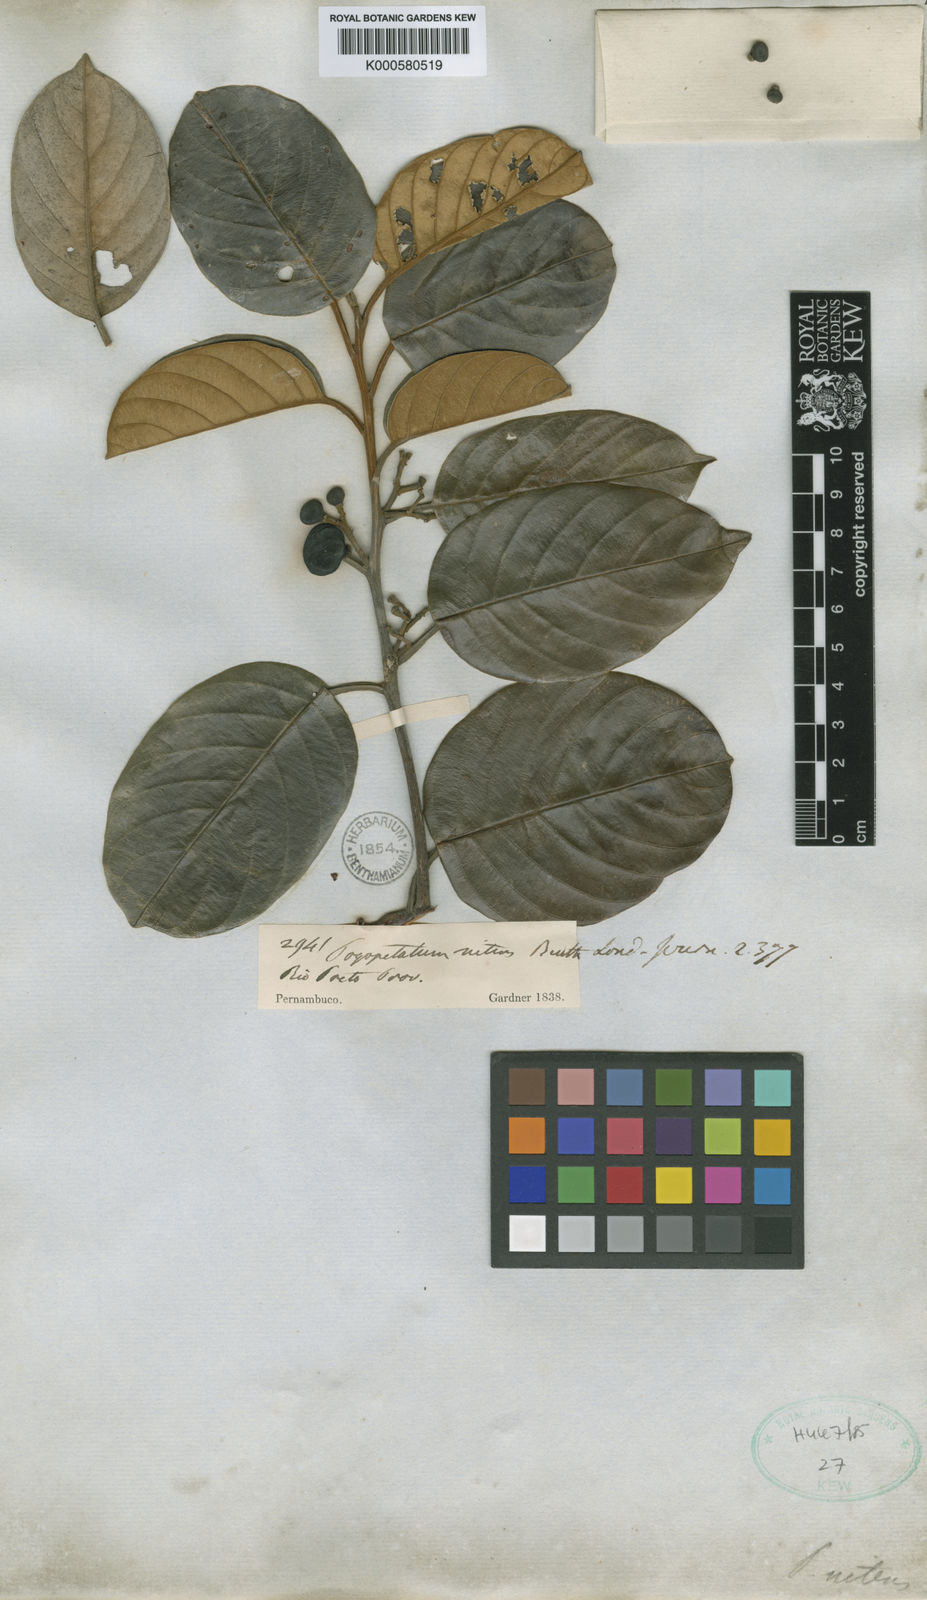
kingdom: Plantae
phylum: Tracheophyta
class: Magnoliopsida
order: Metteniusales
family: Metteniusaceae
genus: Emmotum
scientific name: Emmotum nitens
